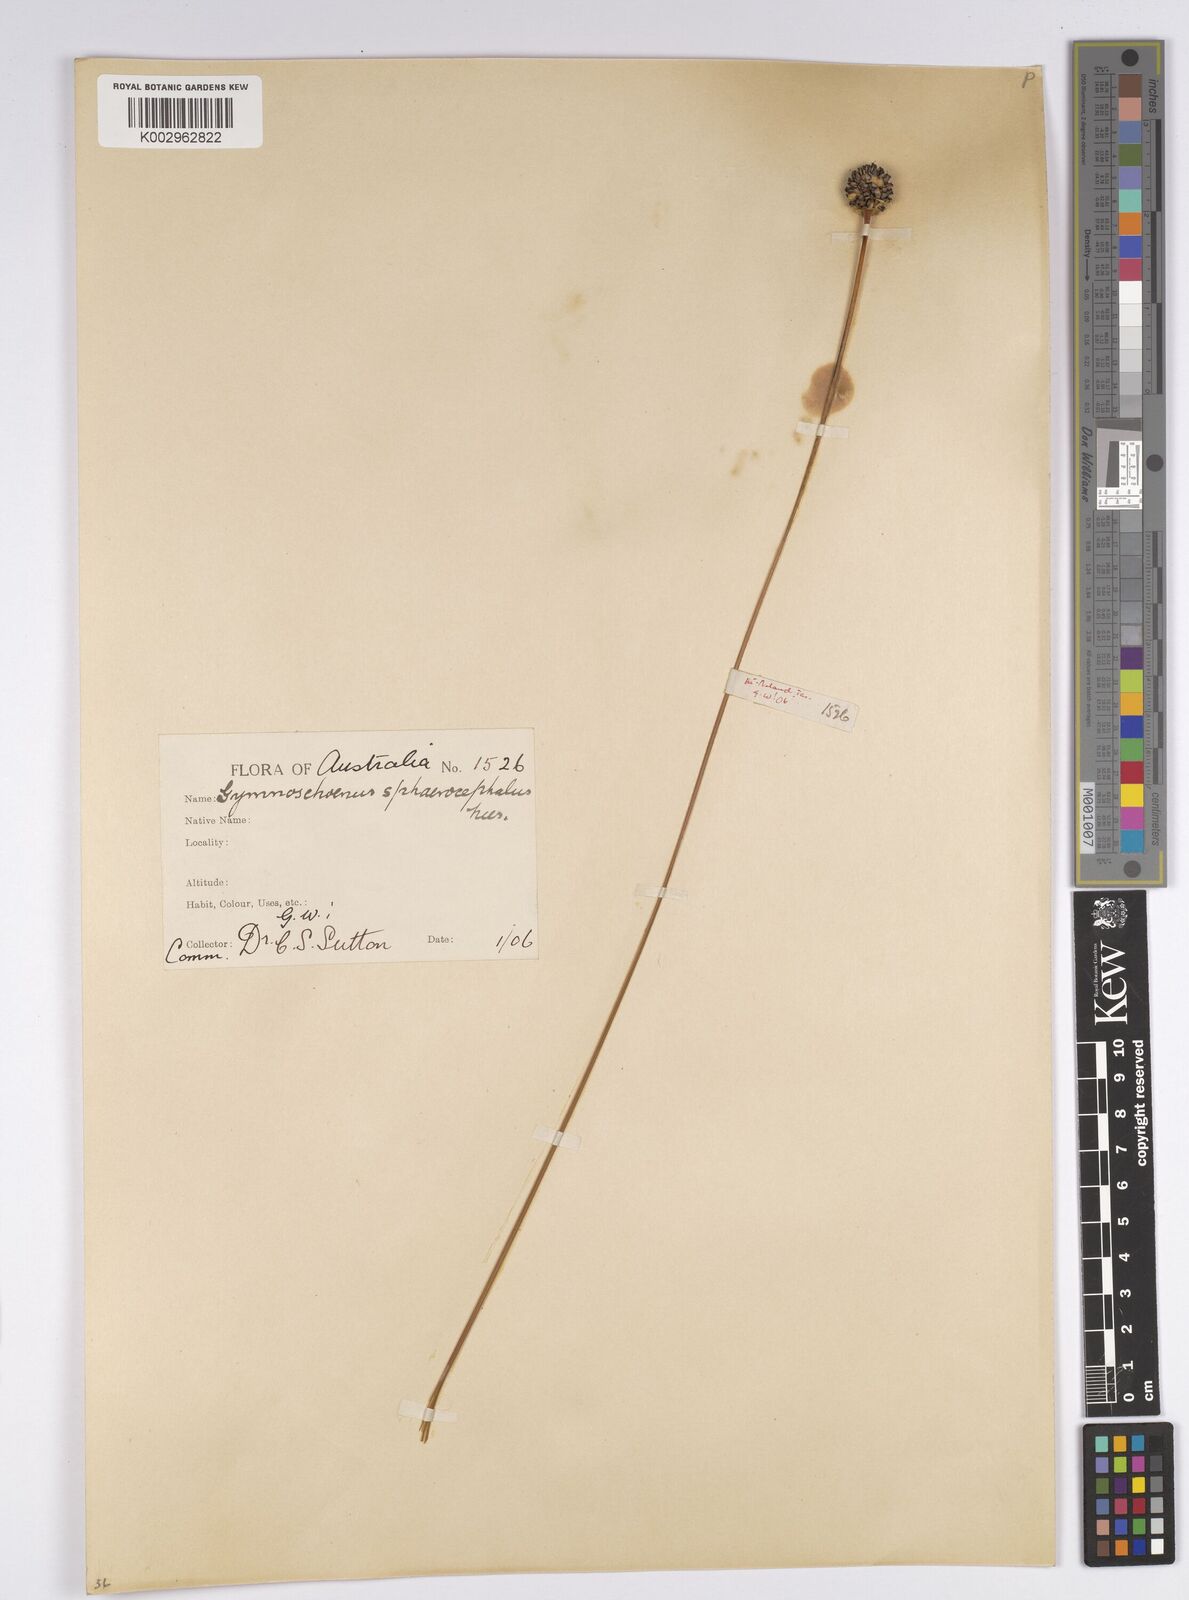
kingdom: Plantae
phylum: Tracheophyta
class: Liliopsida
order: Poales
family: Cyperaceae
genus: Gymnoschoenus
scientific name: Gymnoschoenus sphaerocephalus
